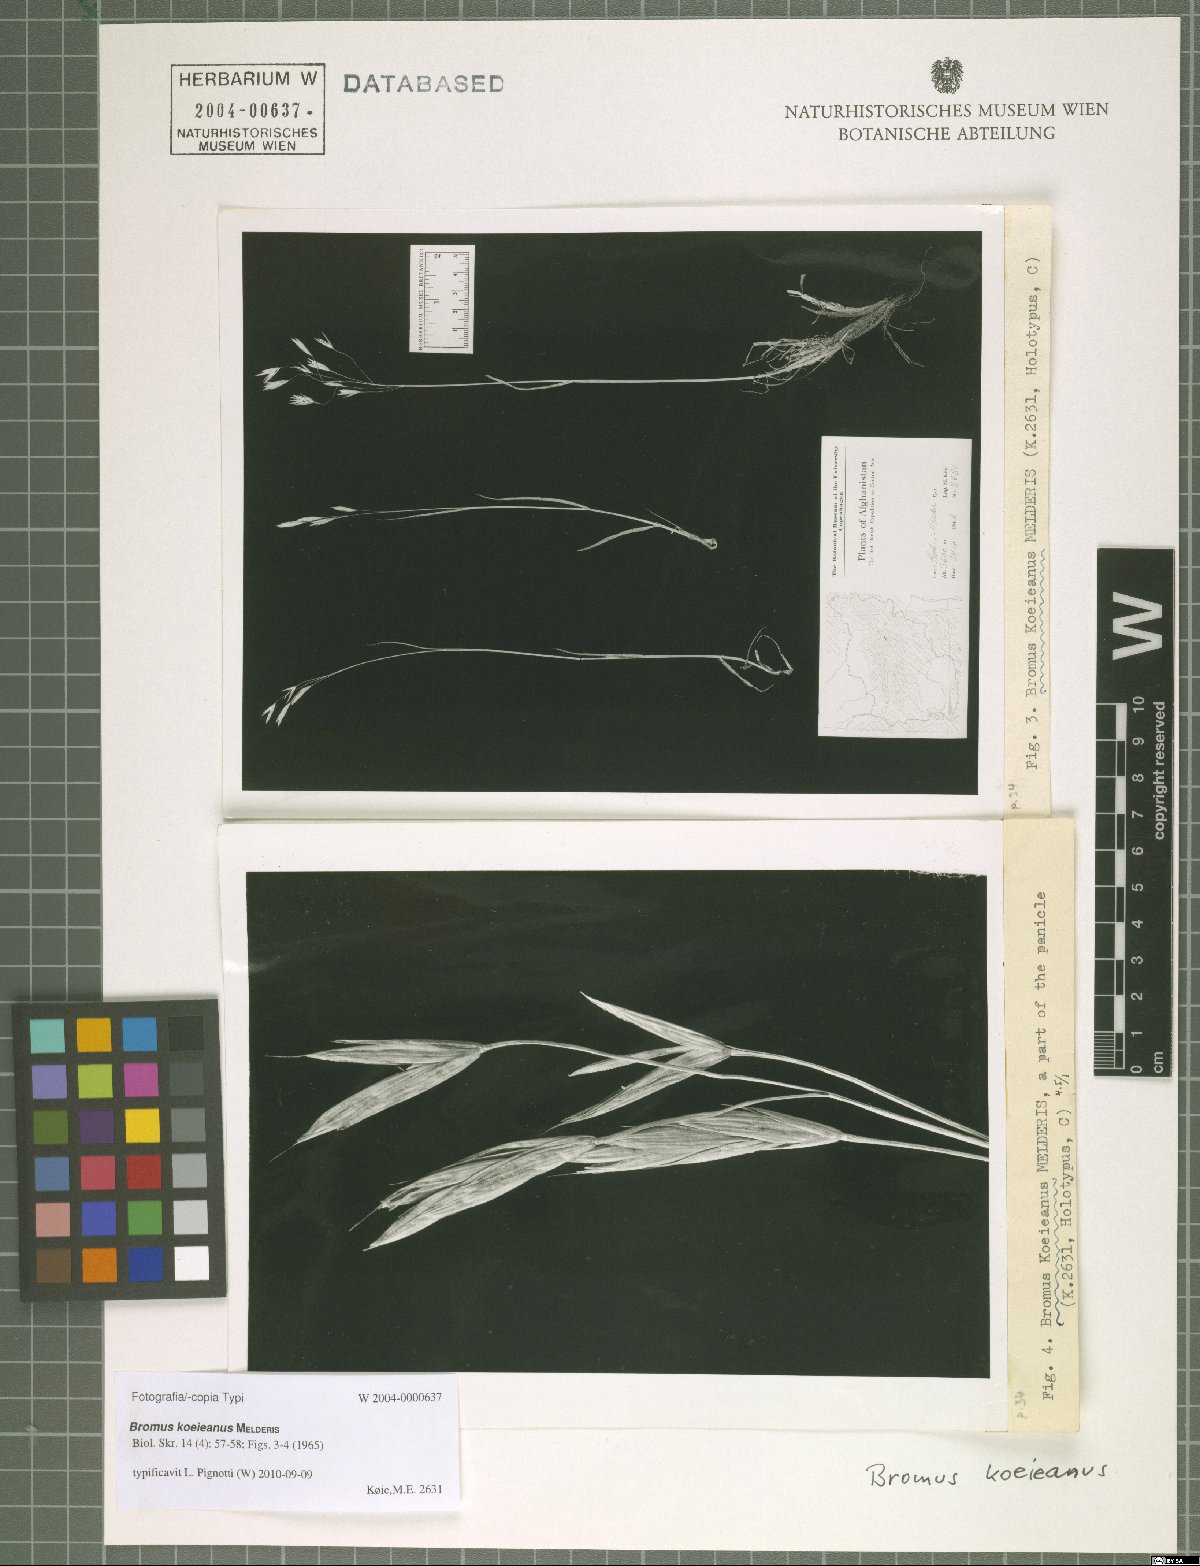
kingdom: Plantae
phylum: Tracheophyta
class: Liliopsida
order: Poales
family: Poaceae
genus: Bromus
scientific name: Bromus koeieanus
